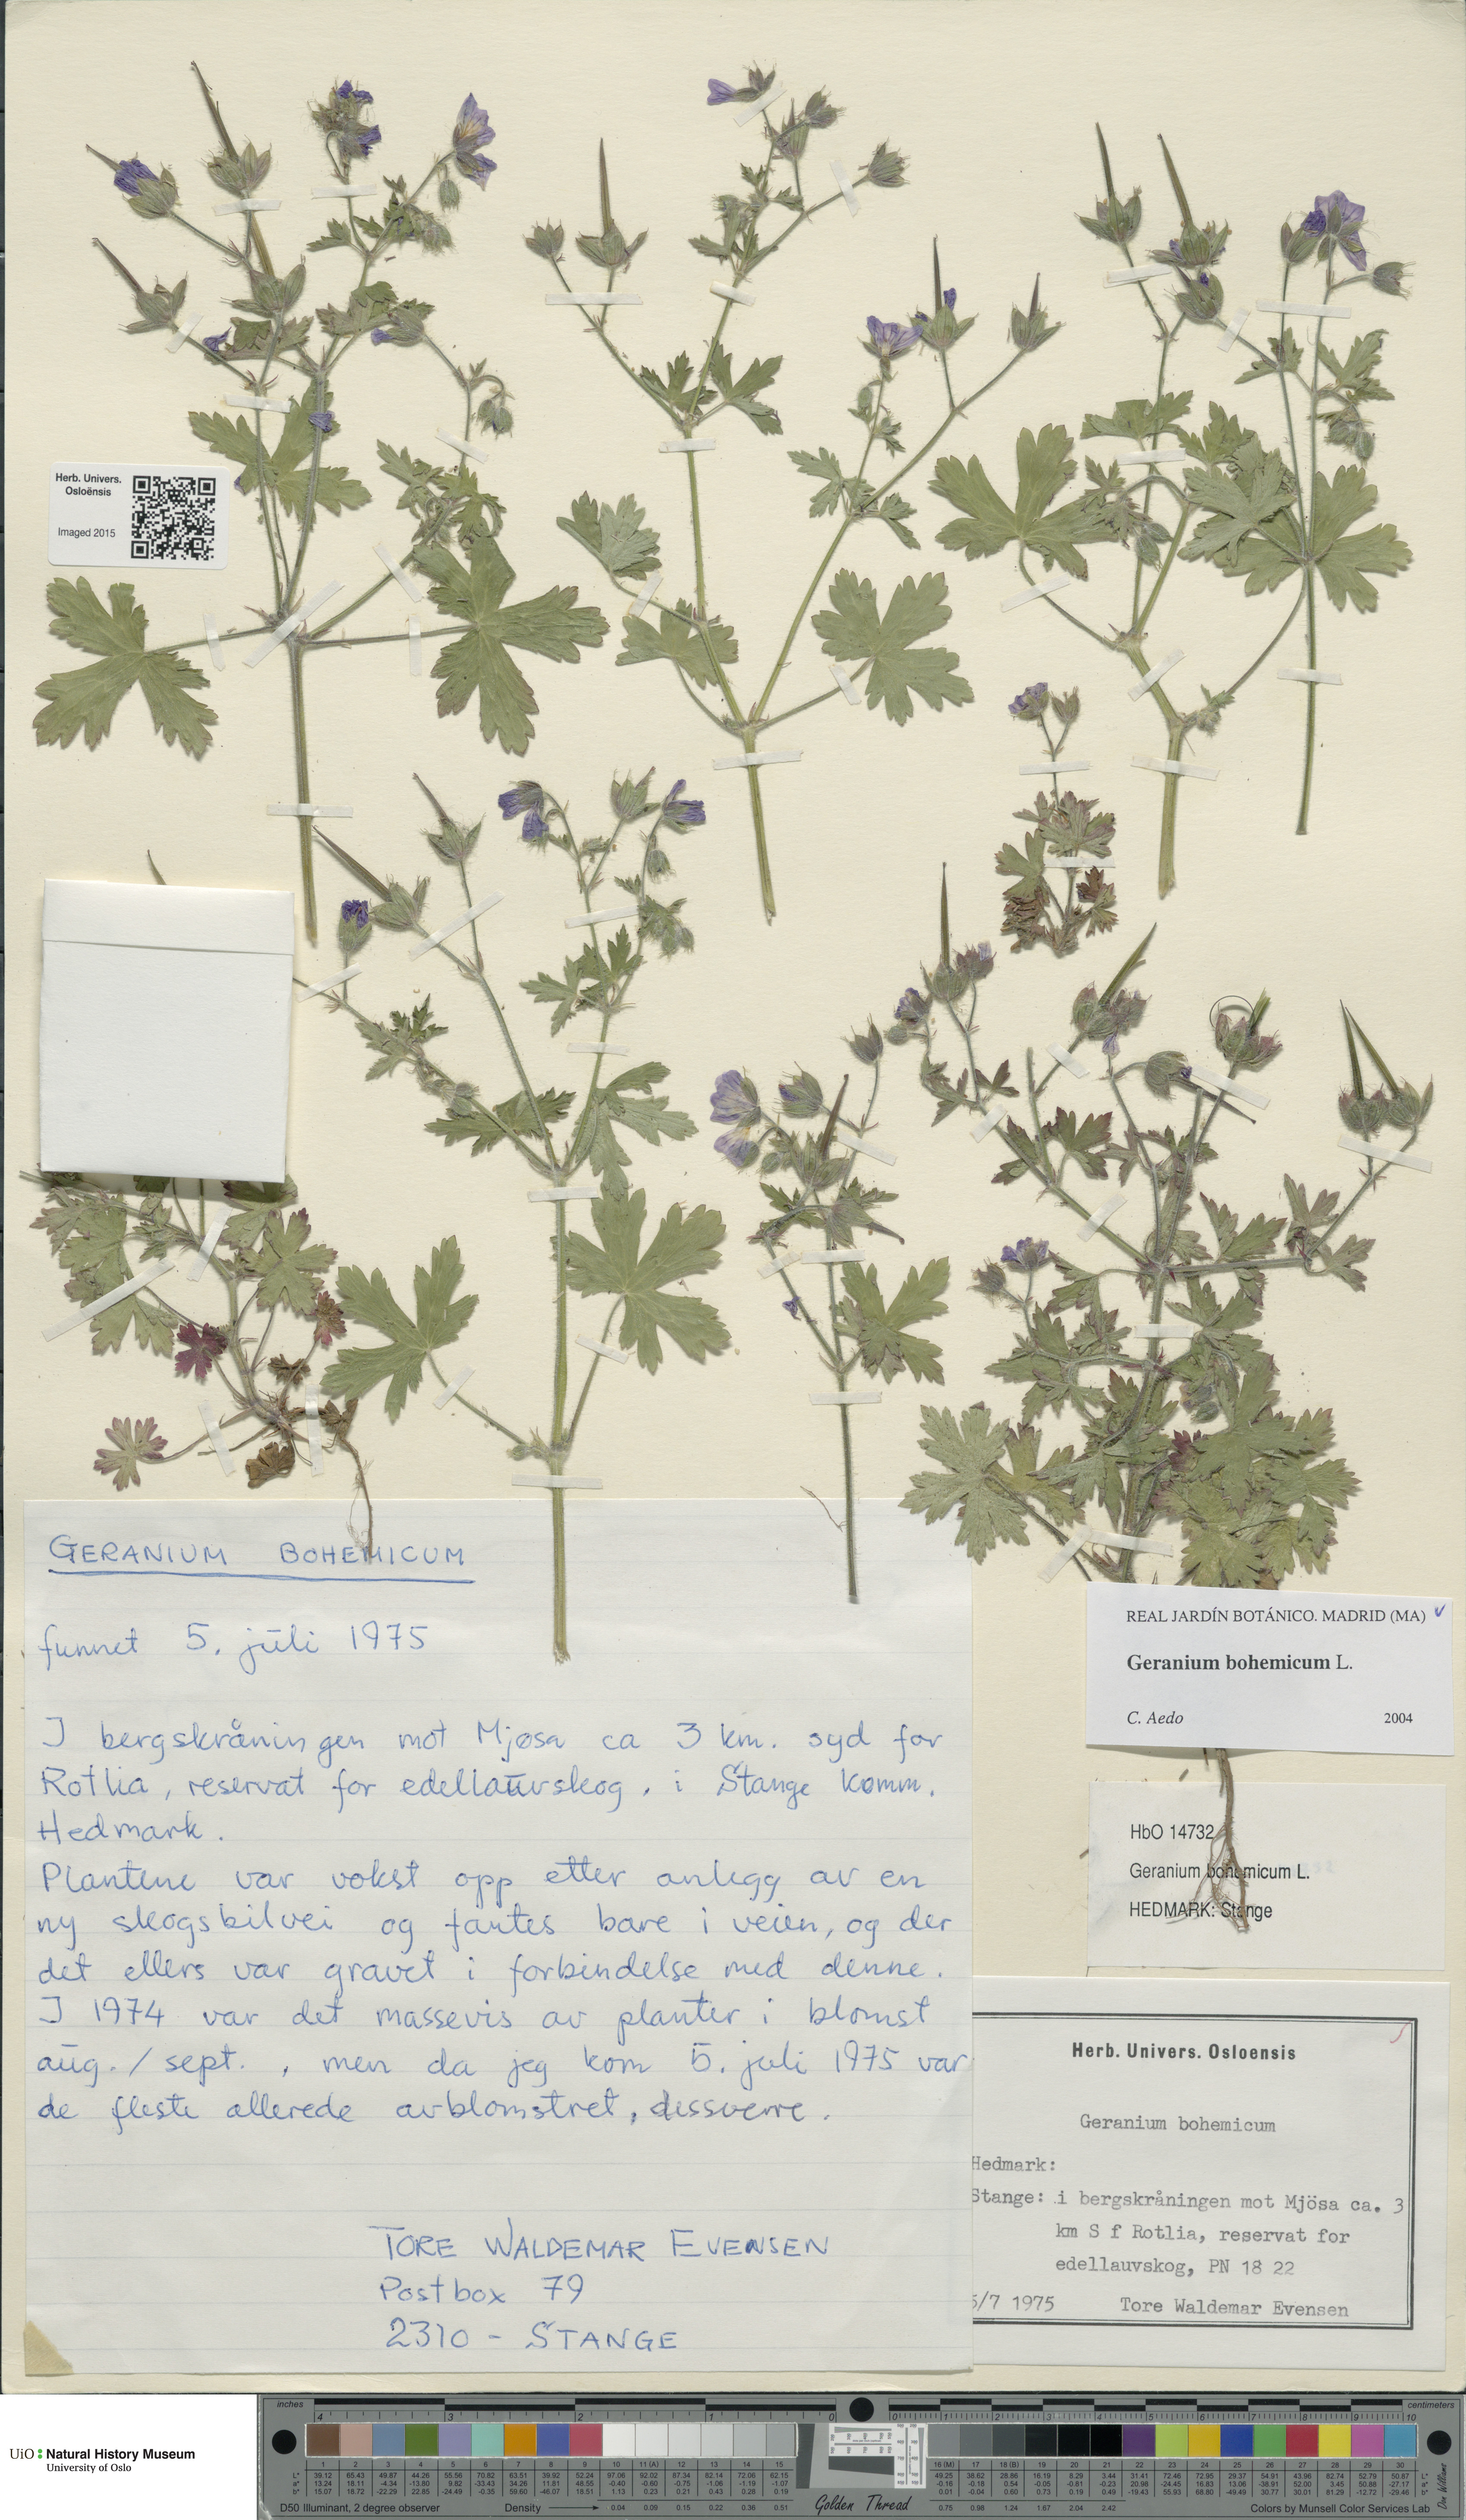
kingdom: Plantae
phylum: Tracheophyta
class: Magnoliopsida
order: Geraniales
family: Geraniaceae
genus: Geranium
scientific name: Geranium bohemicum
